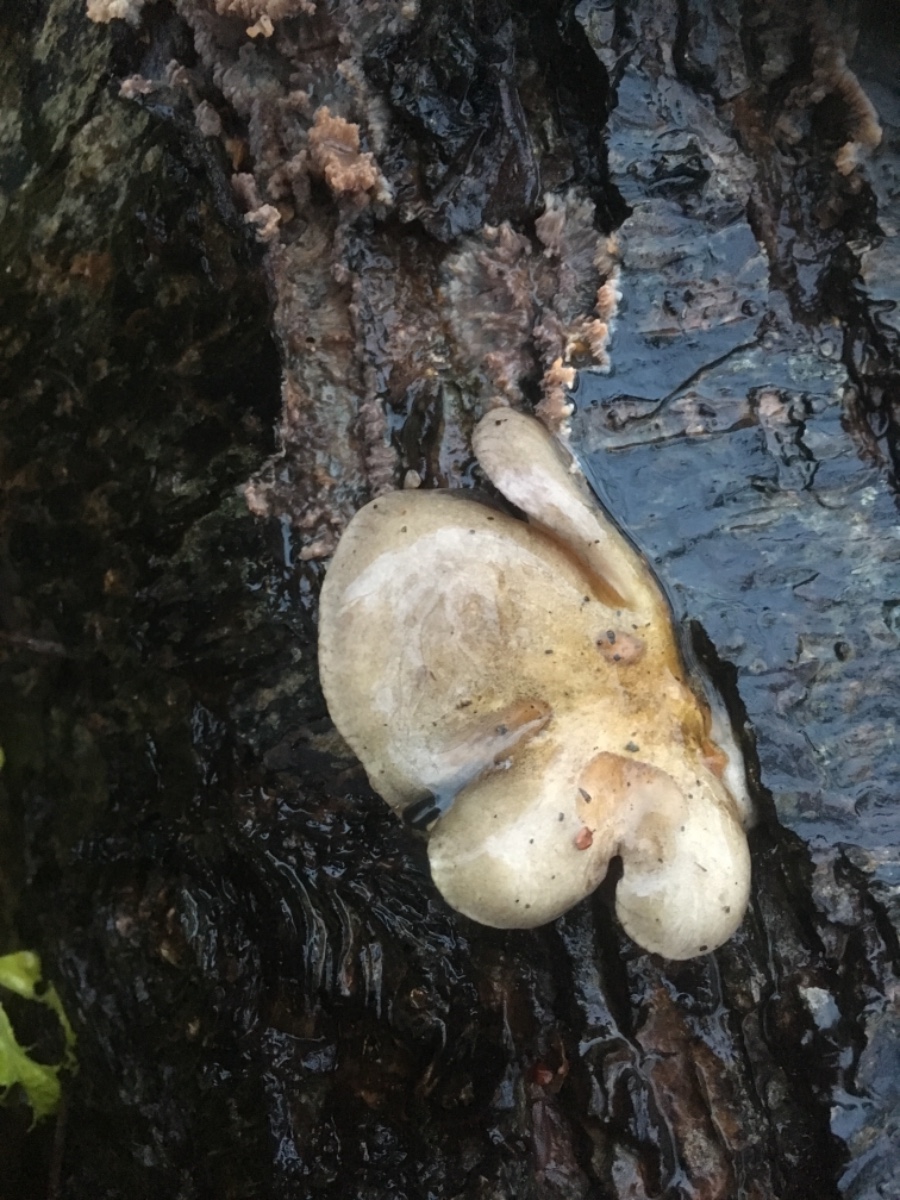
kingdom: Fungi
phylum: Basidiomycota
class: Agaricomycetes
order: Agaricales
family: Sarcomyxaceae
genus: Sarcomyxa
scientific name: Sarcomyxa serotina
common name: gummihat
